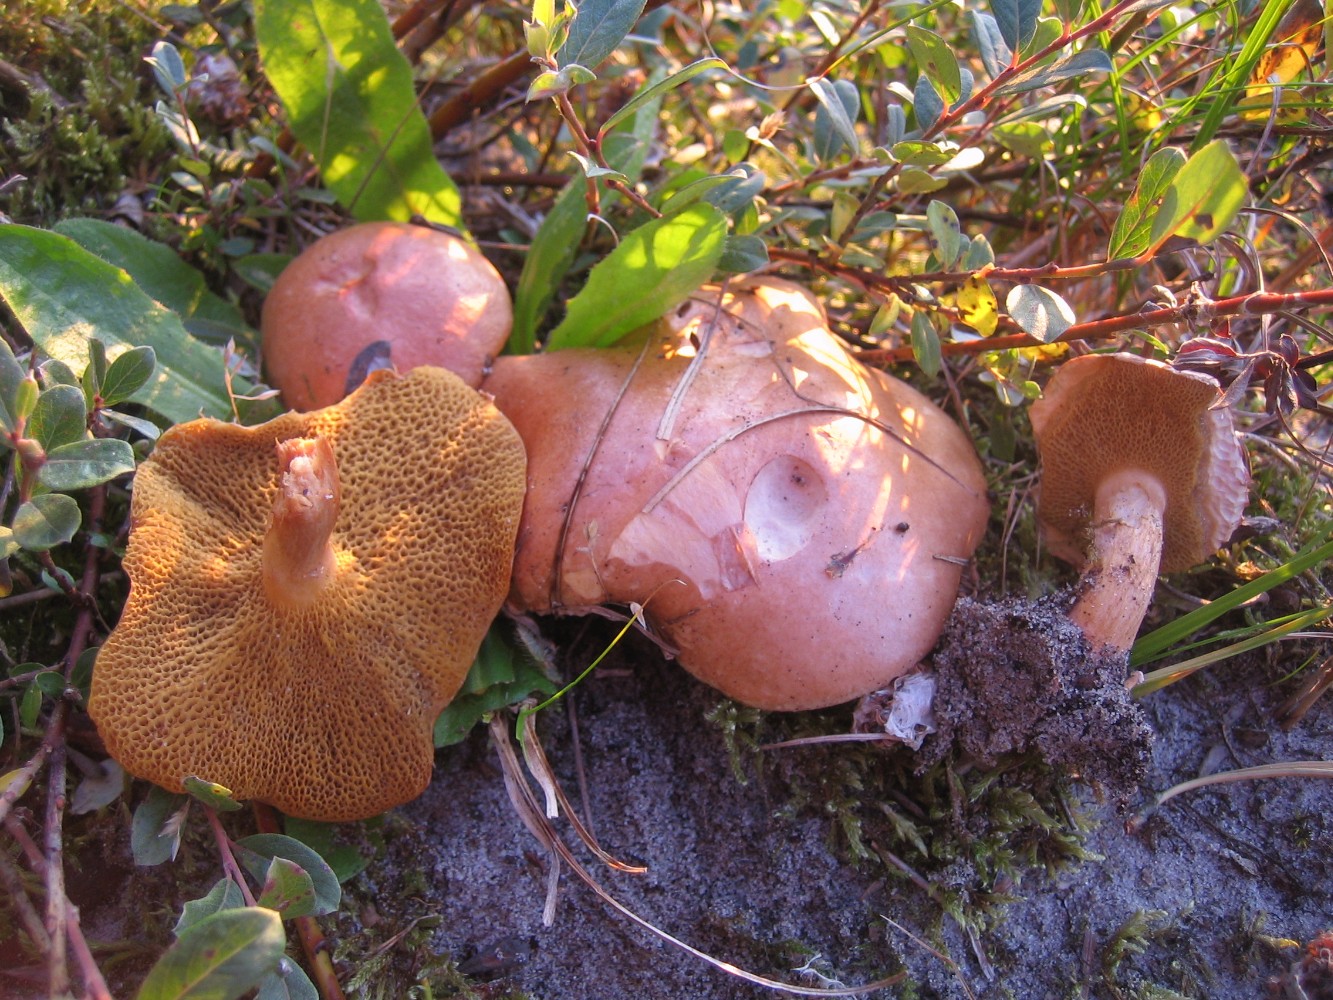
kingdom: Fungi
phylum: Basidiomycota
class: Agaricomycetes
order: Boletales
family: Suillaceae
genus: Suillus
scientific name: Suillus bovinus
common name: grovporet slimrørhat
